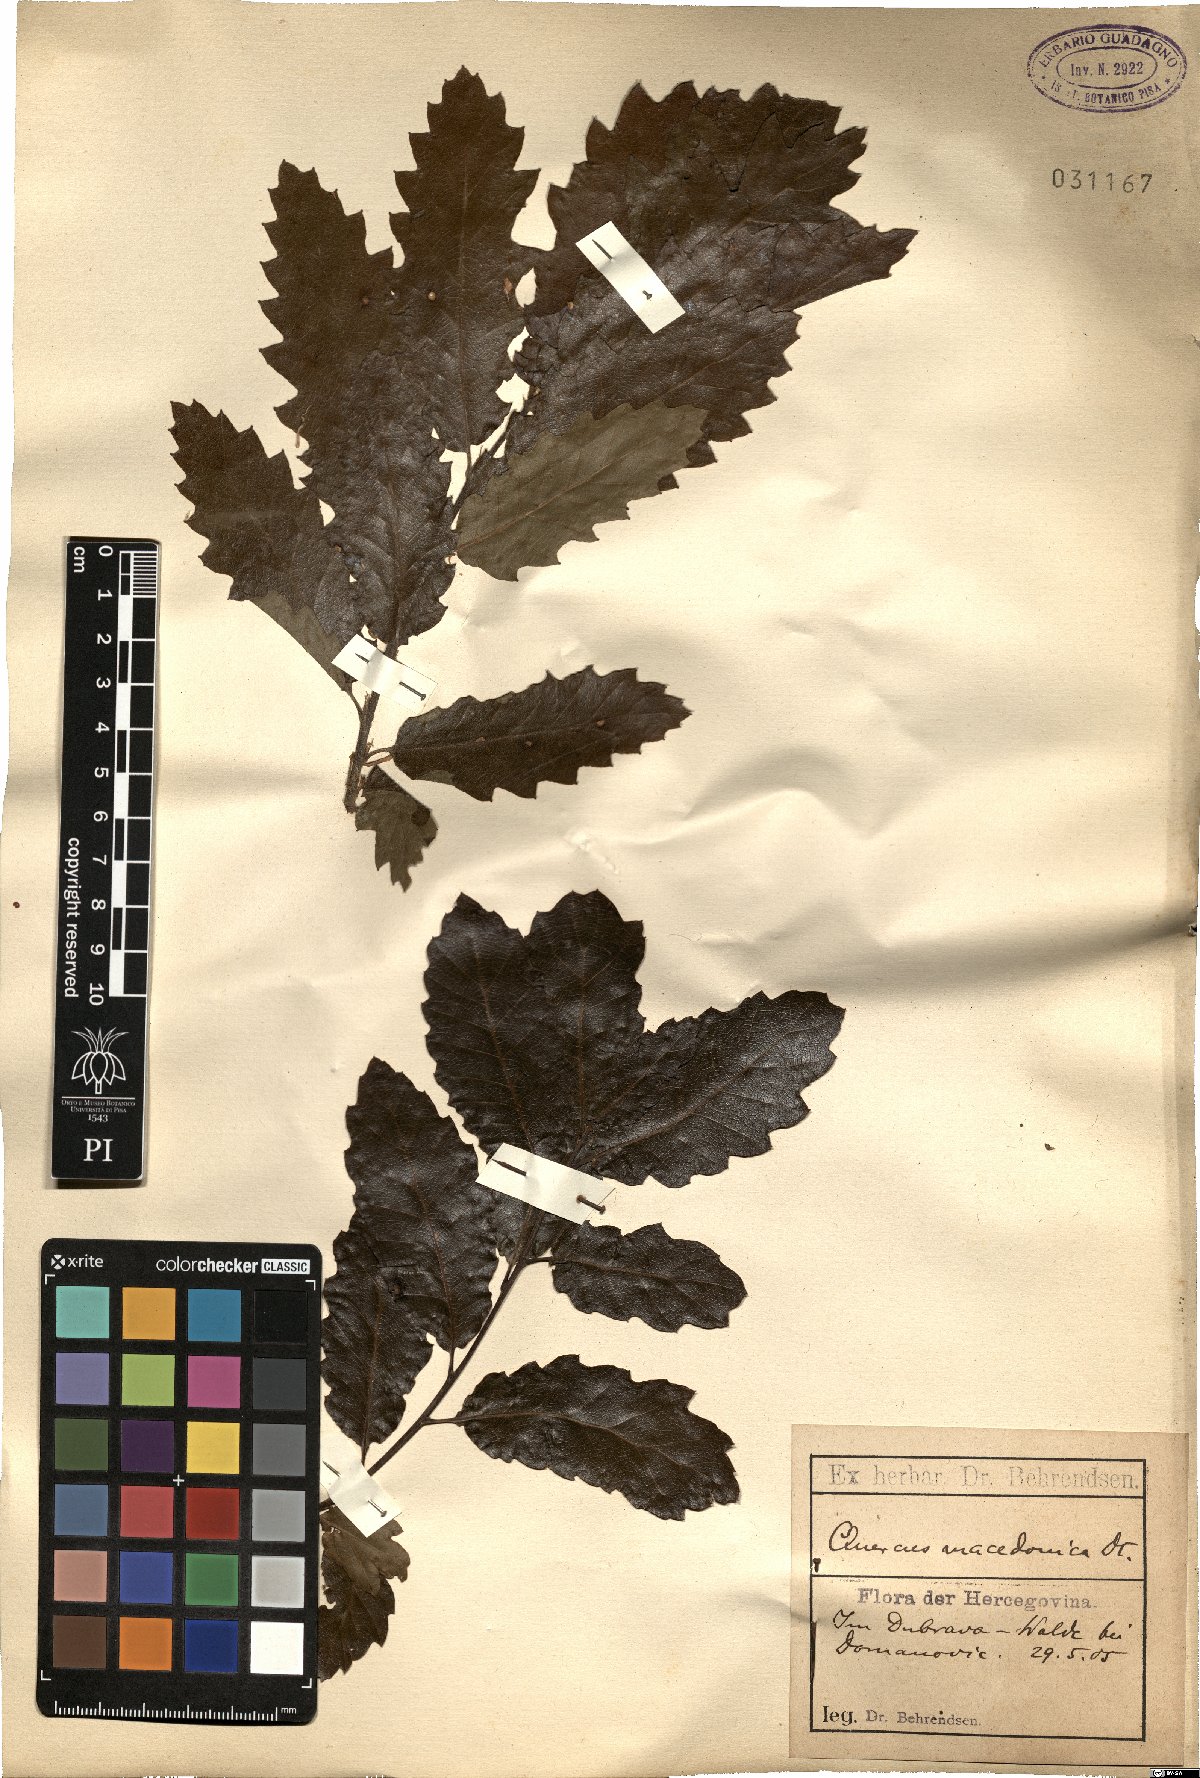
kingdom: Plantae
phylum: Tracheophyta
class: Magnoliopsida
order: Fagales
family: Fagaceae
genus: Quercus
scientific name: Quercus trojana
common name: Macedonian oak
